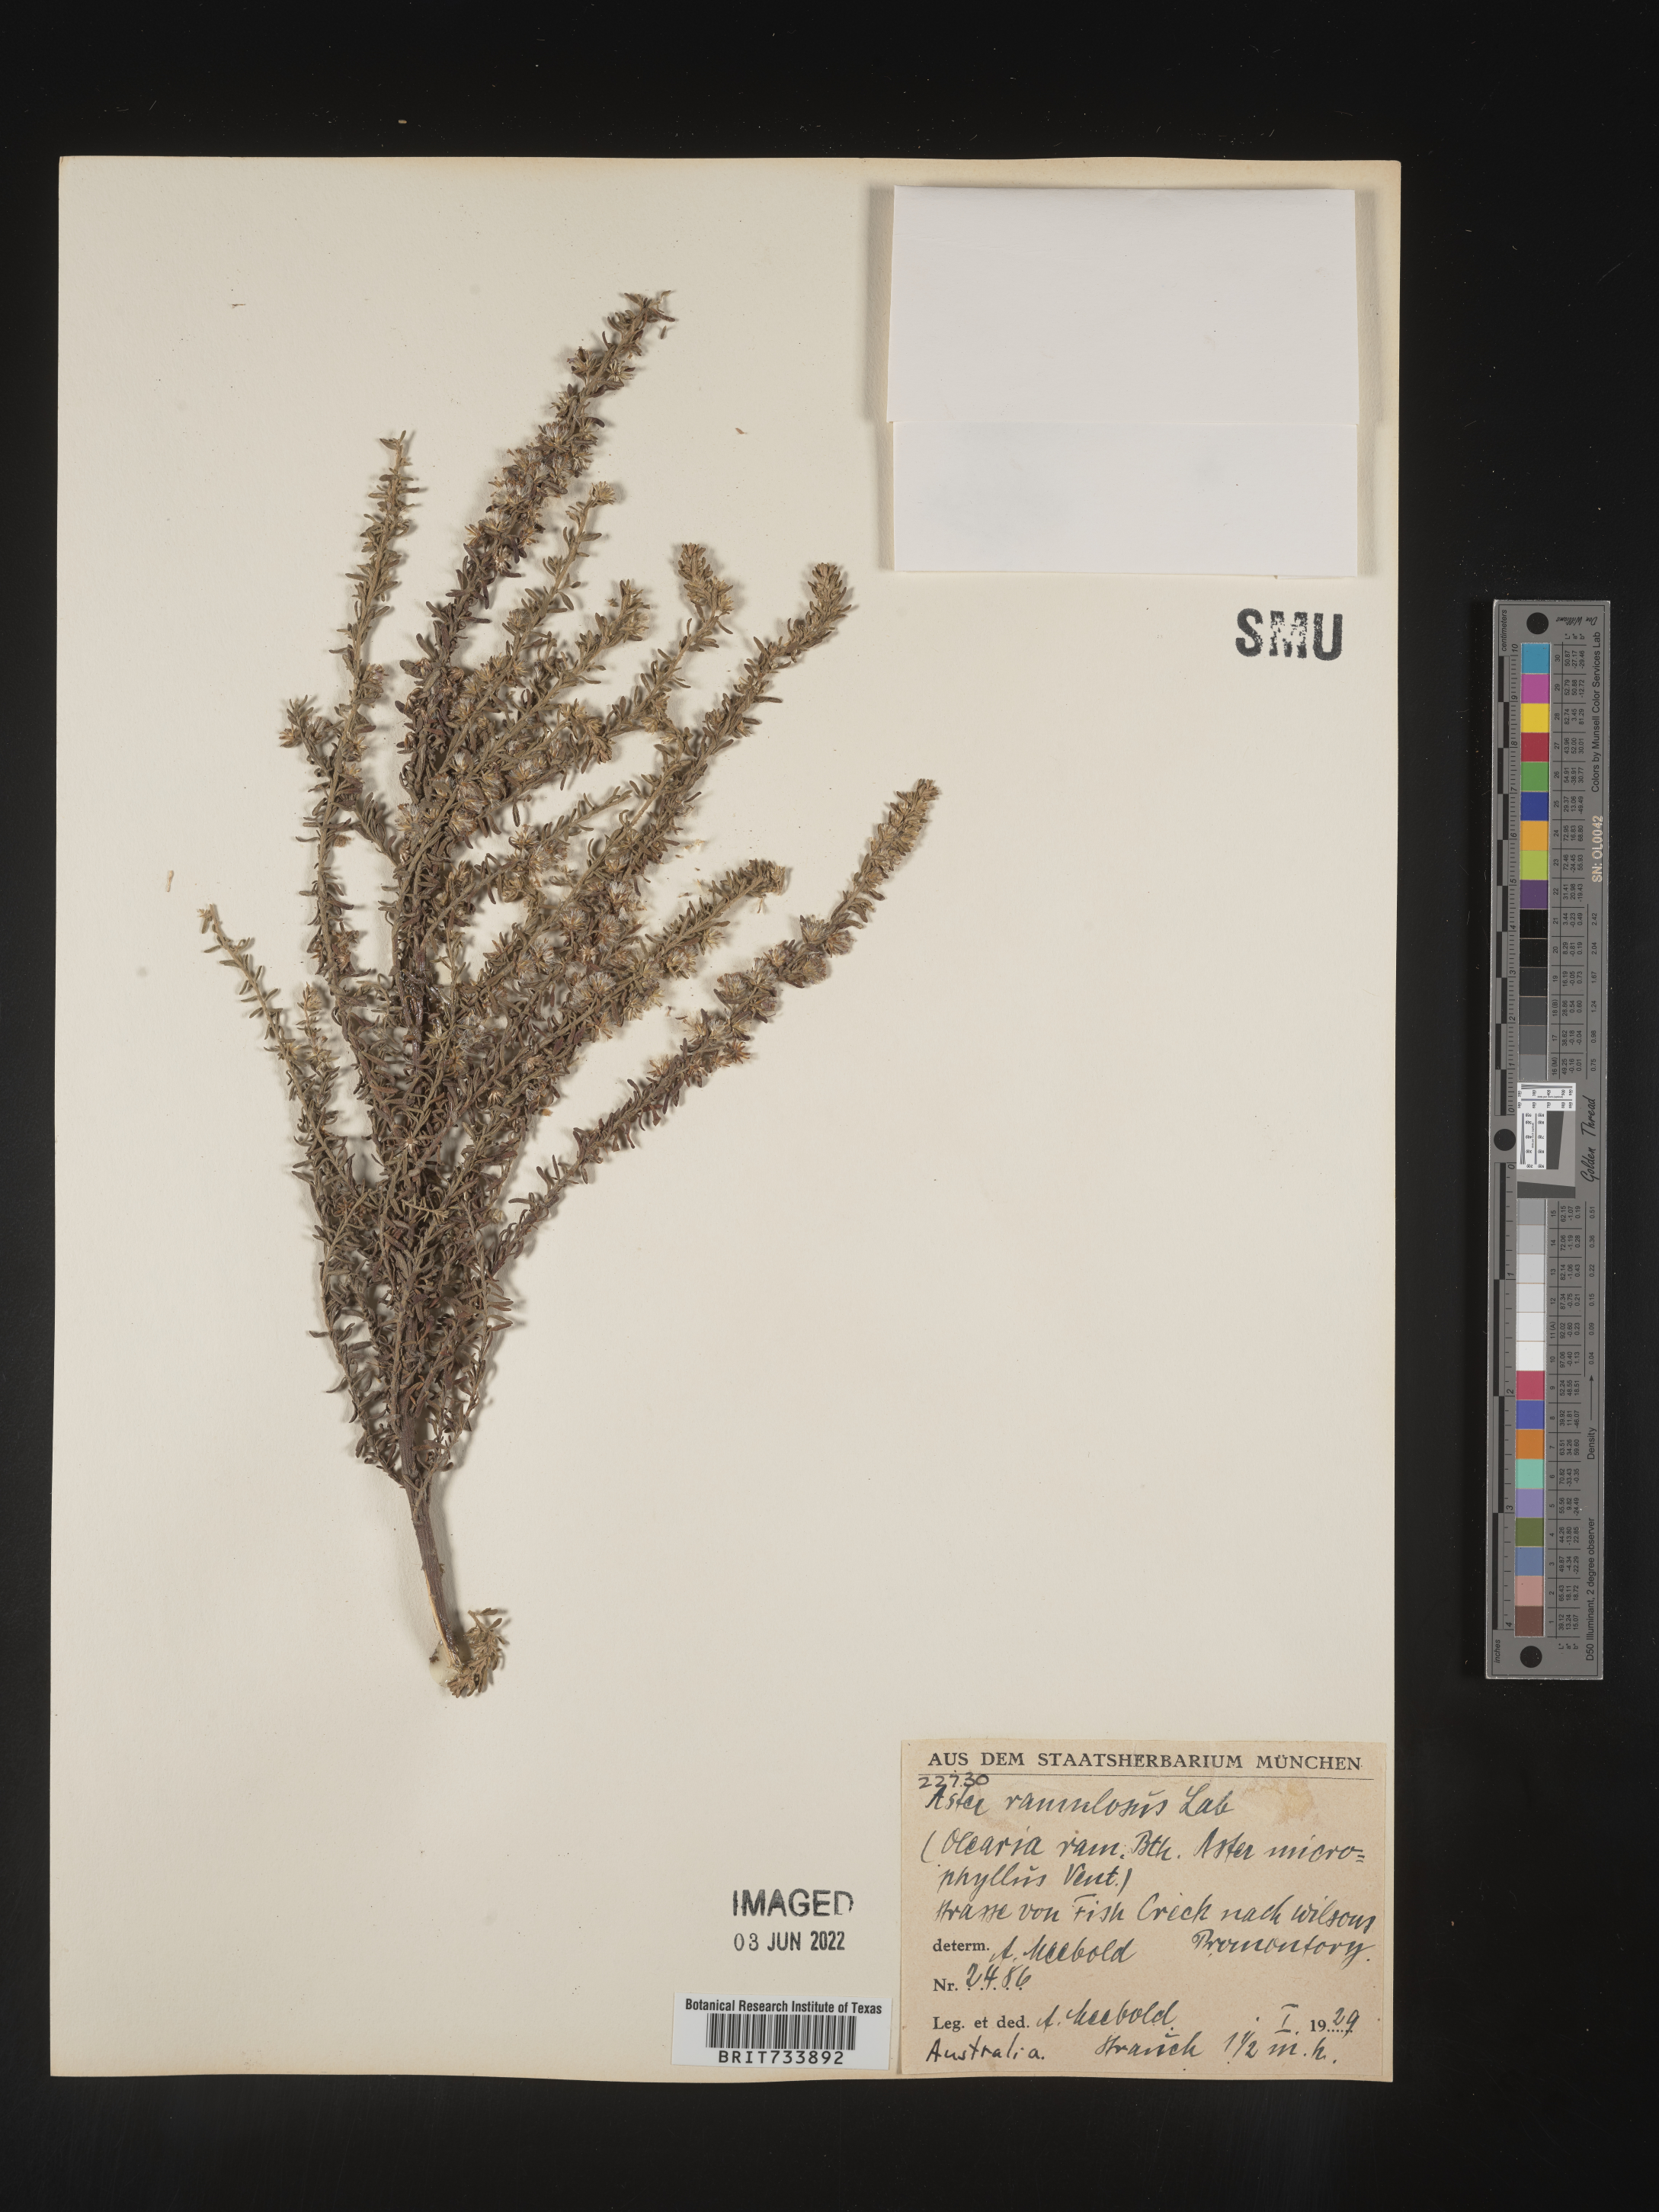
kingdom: Plantae
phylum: Tracheophyta
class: Magnoliopsida
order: Asterales
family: Asteraceae
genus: Olearia
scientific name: Olearia
